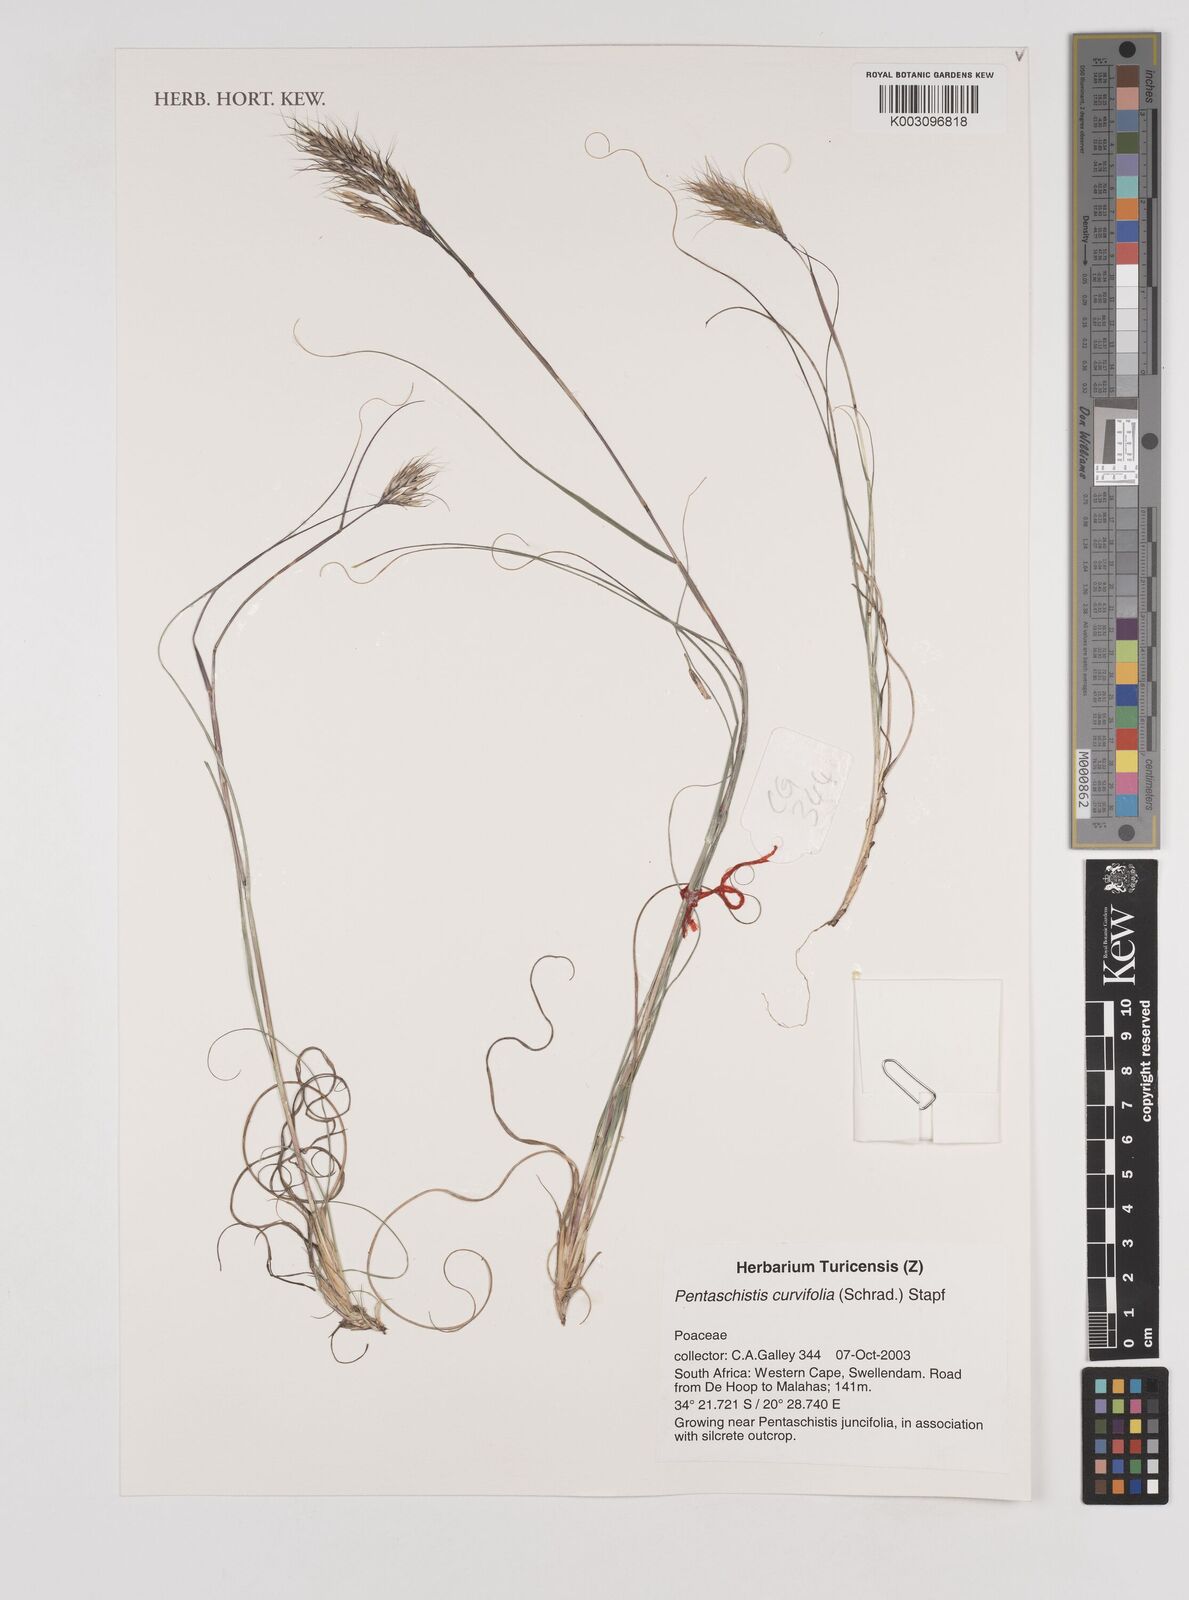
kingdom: Plantae
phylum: Tracheophyta
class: Liliopsida
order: Poales
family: Poaceae
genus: Pentameris
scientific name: Pentameris curvifolia
